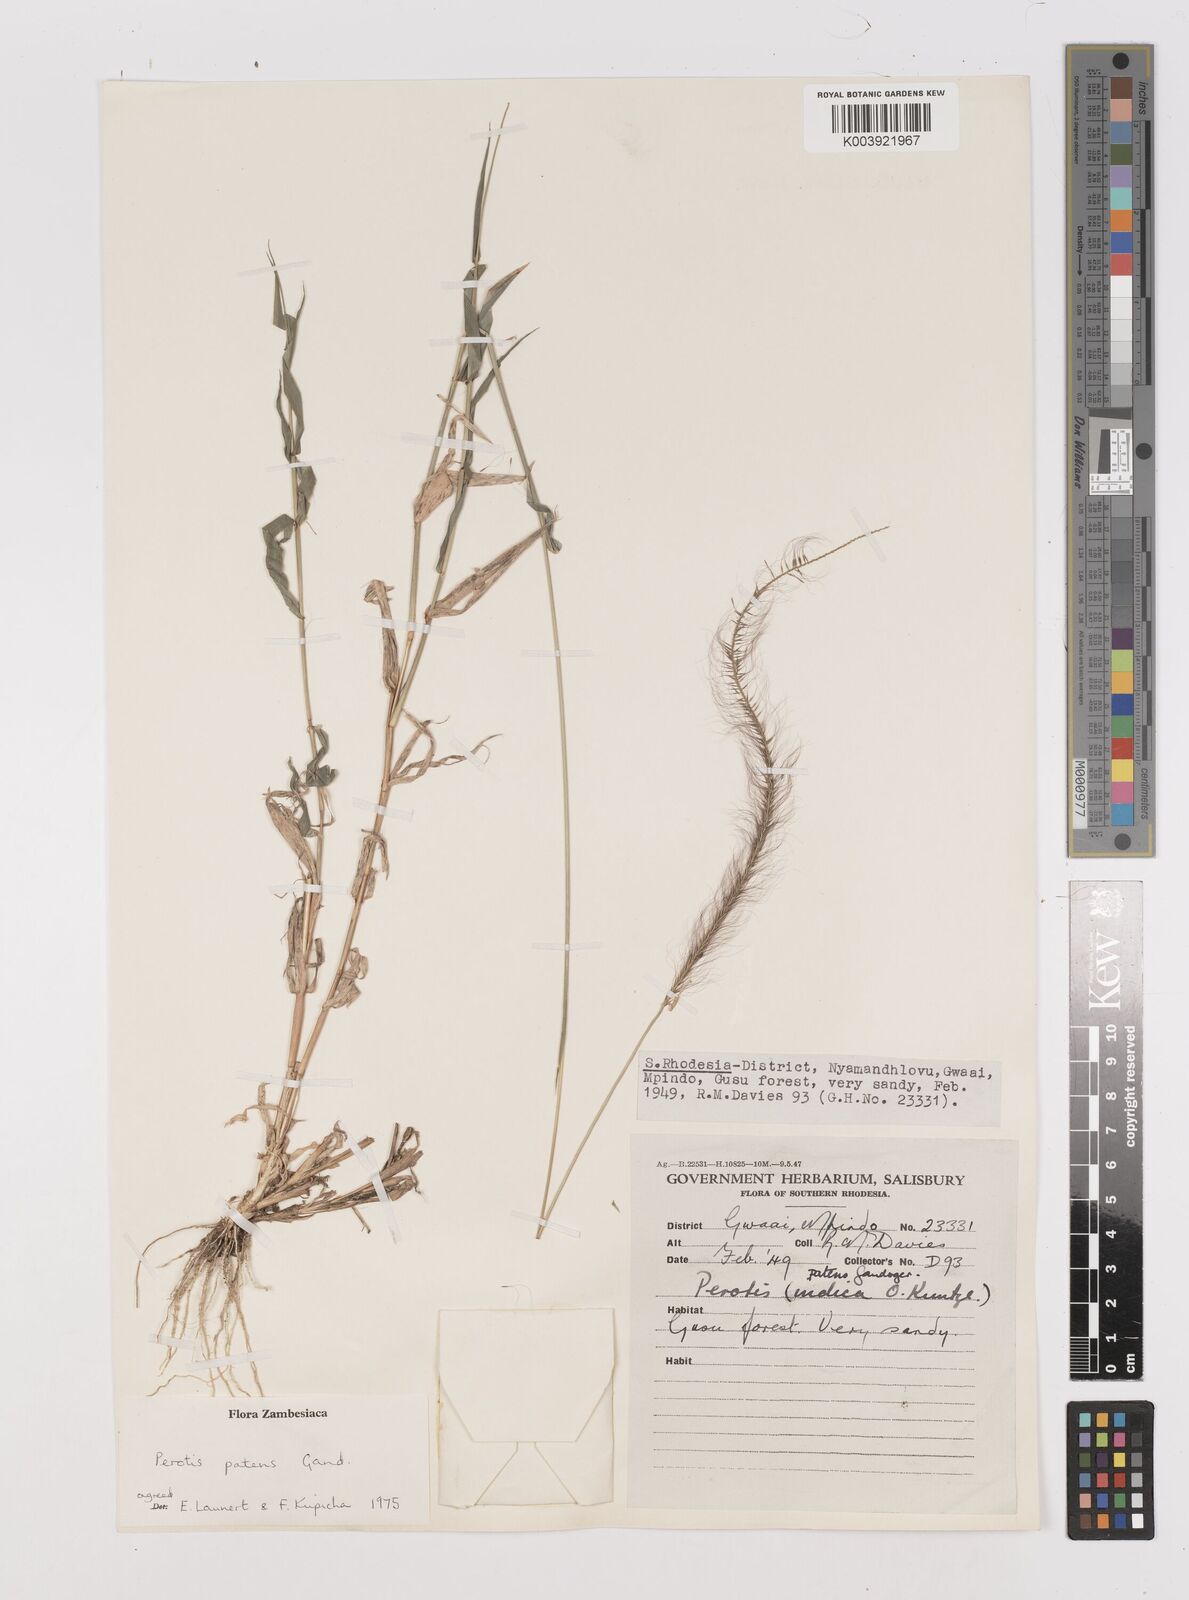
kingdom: Plantae
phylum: Tracheophyta
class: Liliopsida
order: Poales
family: Poaceae
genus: Perotis
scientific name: Perotis patens
